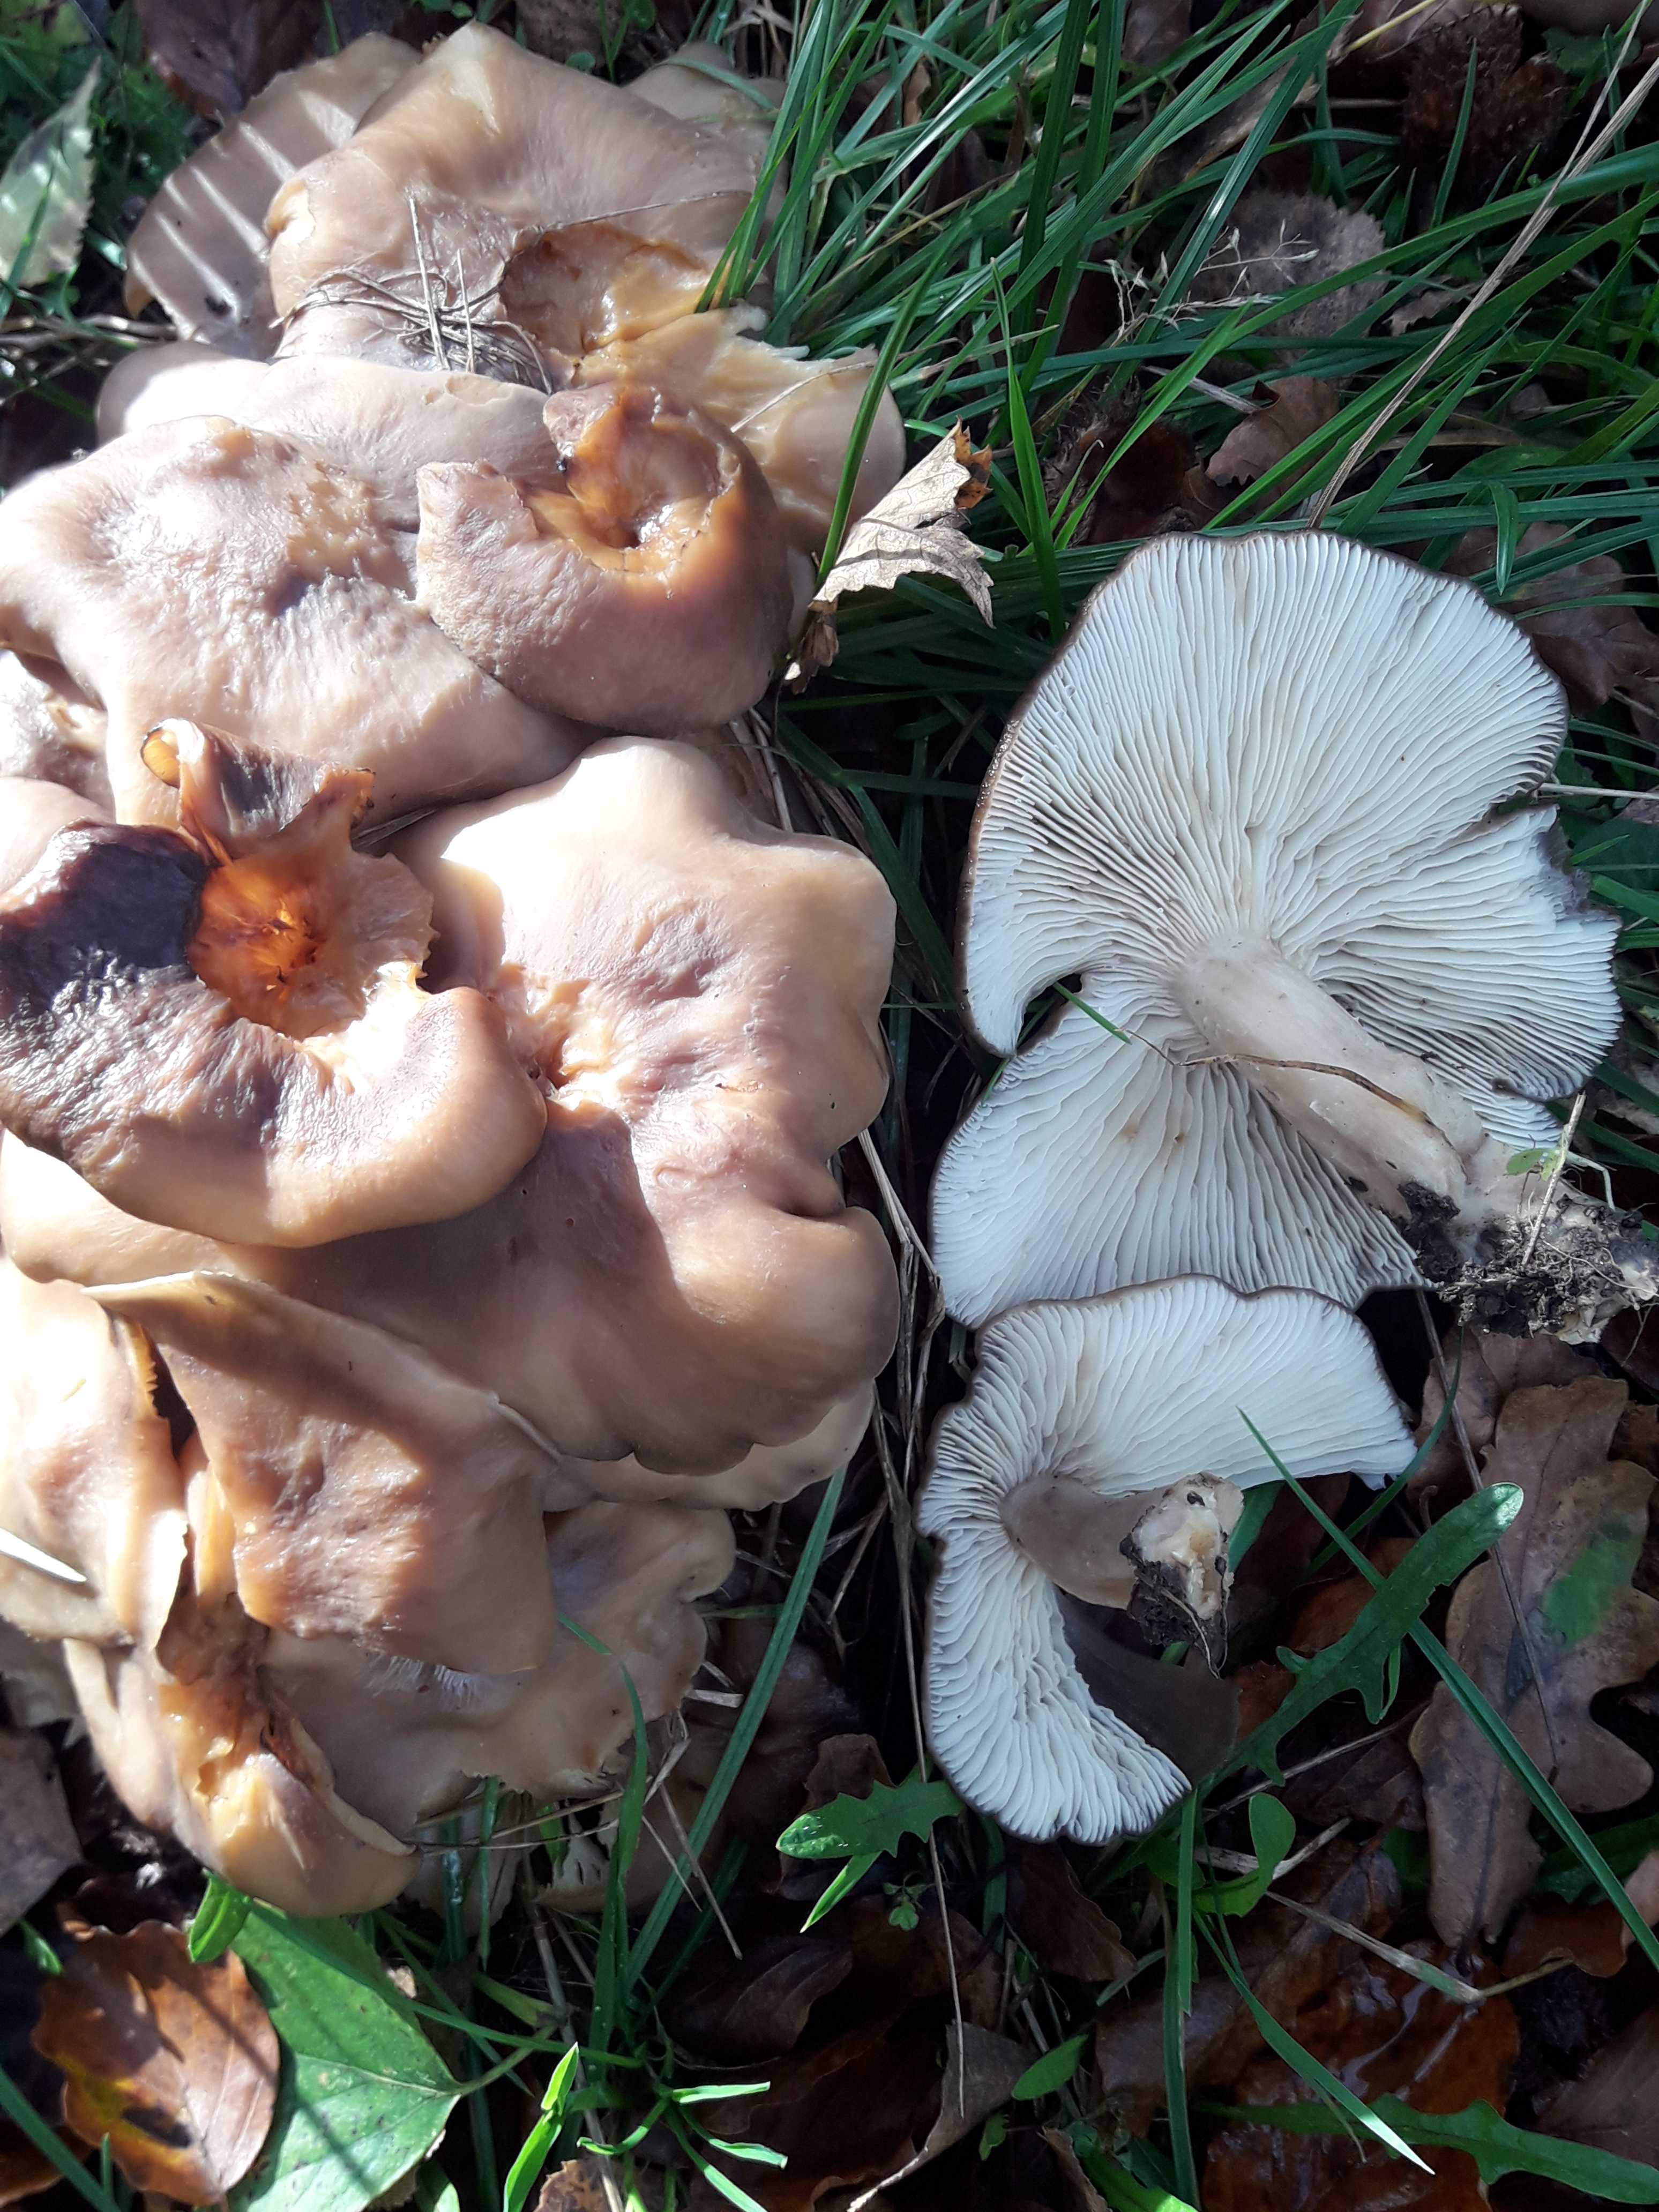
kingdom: Fungi
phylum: Basidiomycota
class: Agaricomycetes
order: Agaricales
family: Lyophyllaceae
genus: Lyophyllum
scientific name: Lyophyllum decastes
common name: røggrå gråblad
